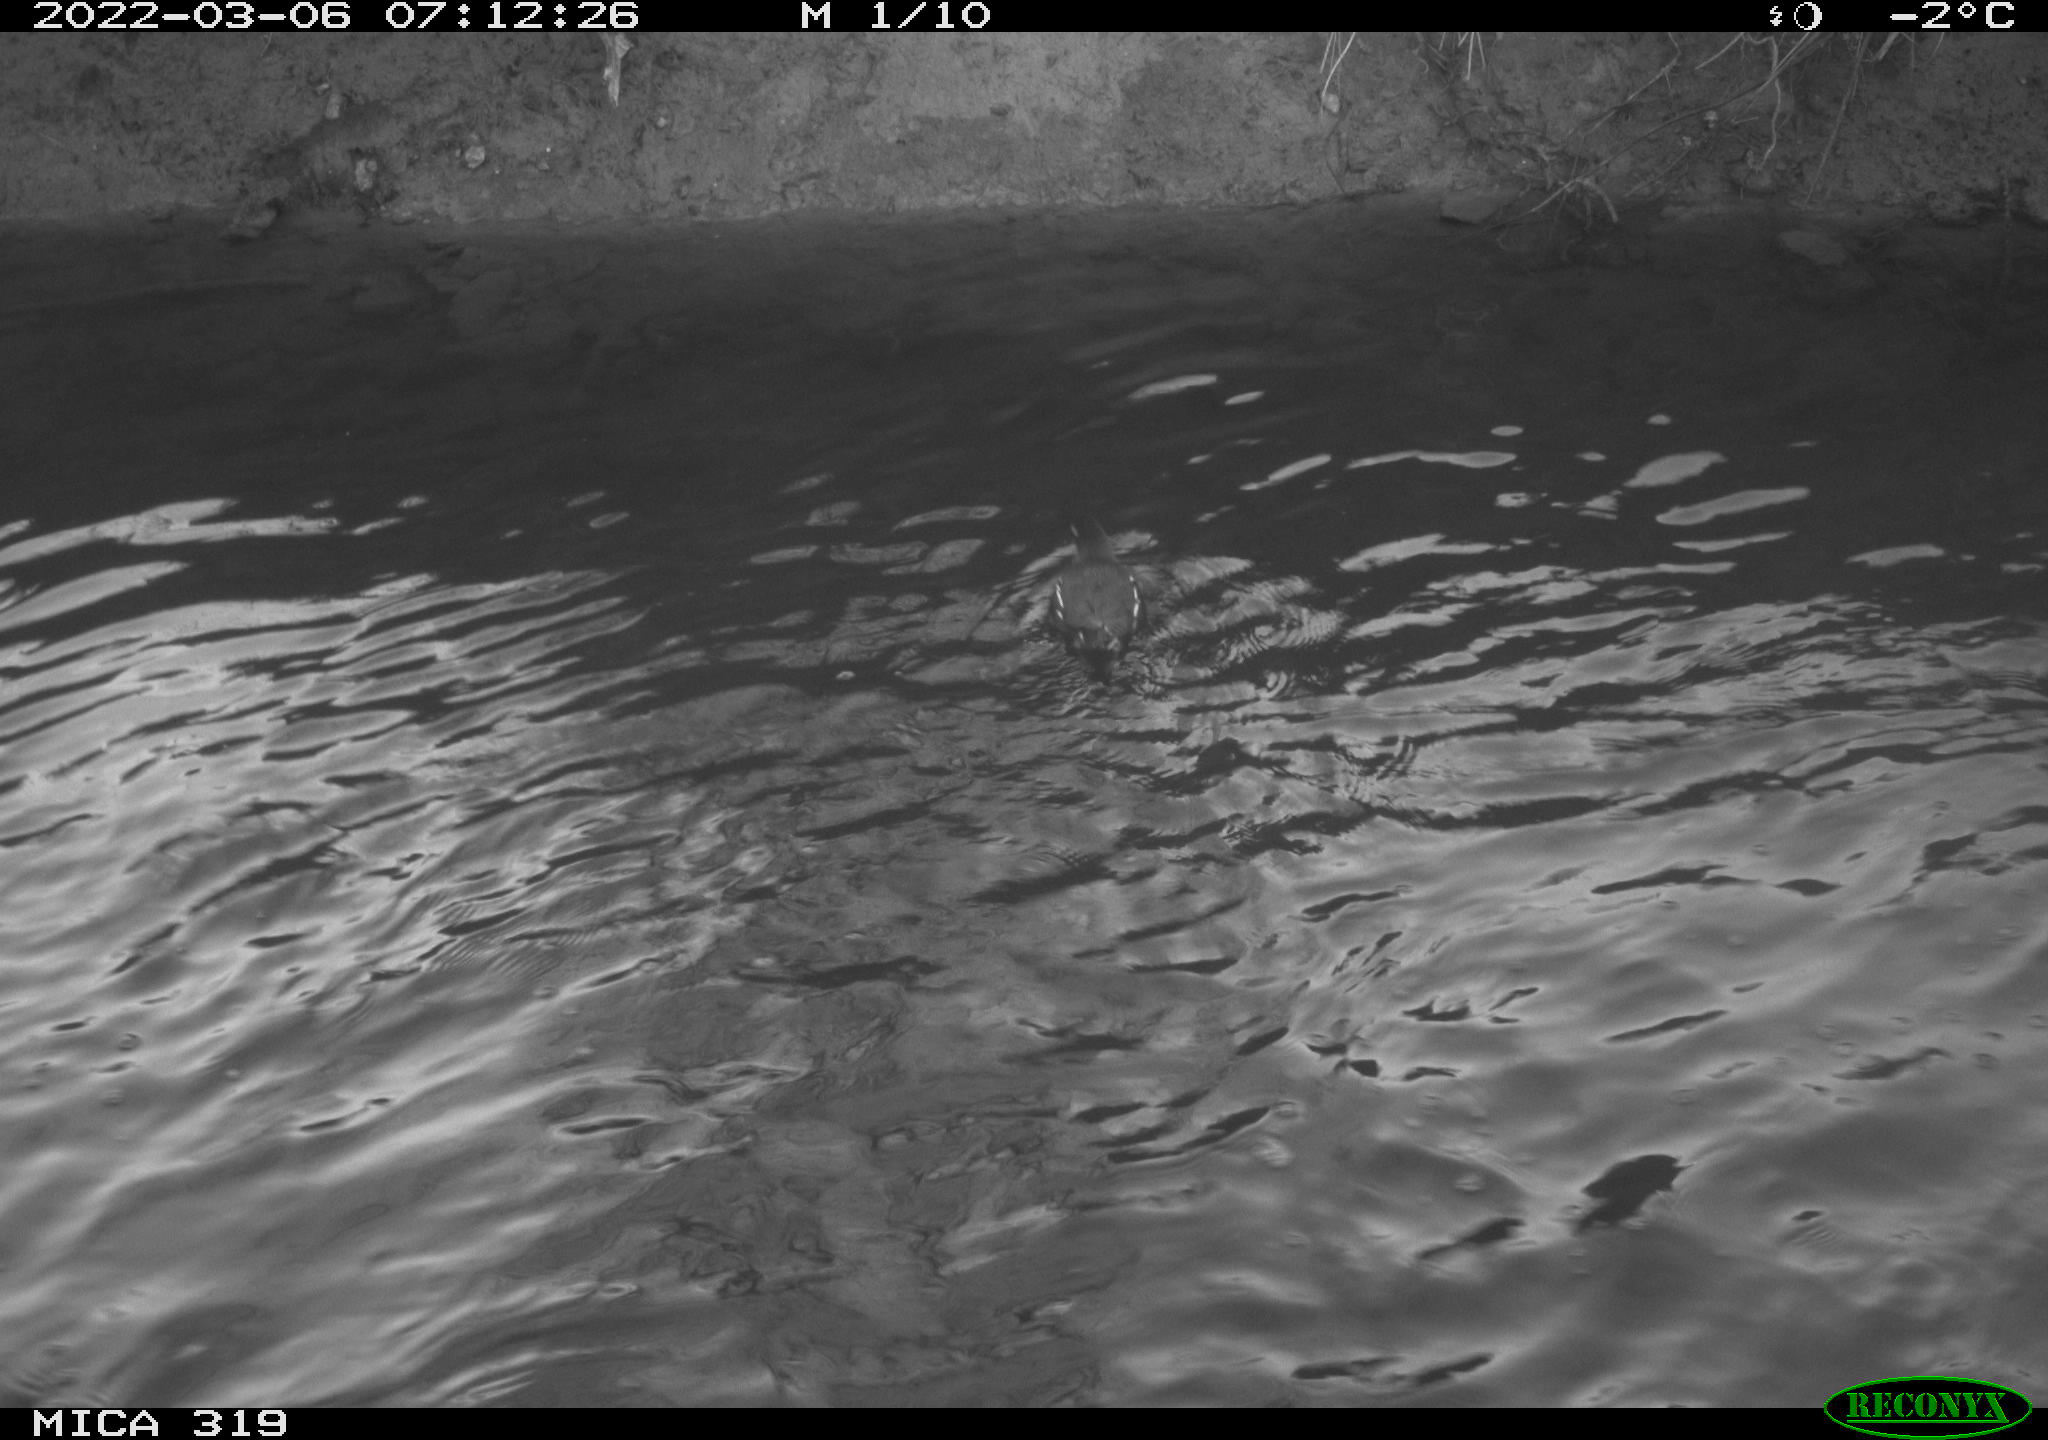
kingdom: Animalia
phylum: Chordata
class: Aves
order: Gruiformes
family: Rallidae
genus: Gallinula
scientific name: Gallinula chloropus
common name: Common moorhen
